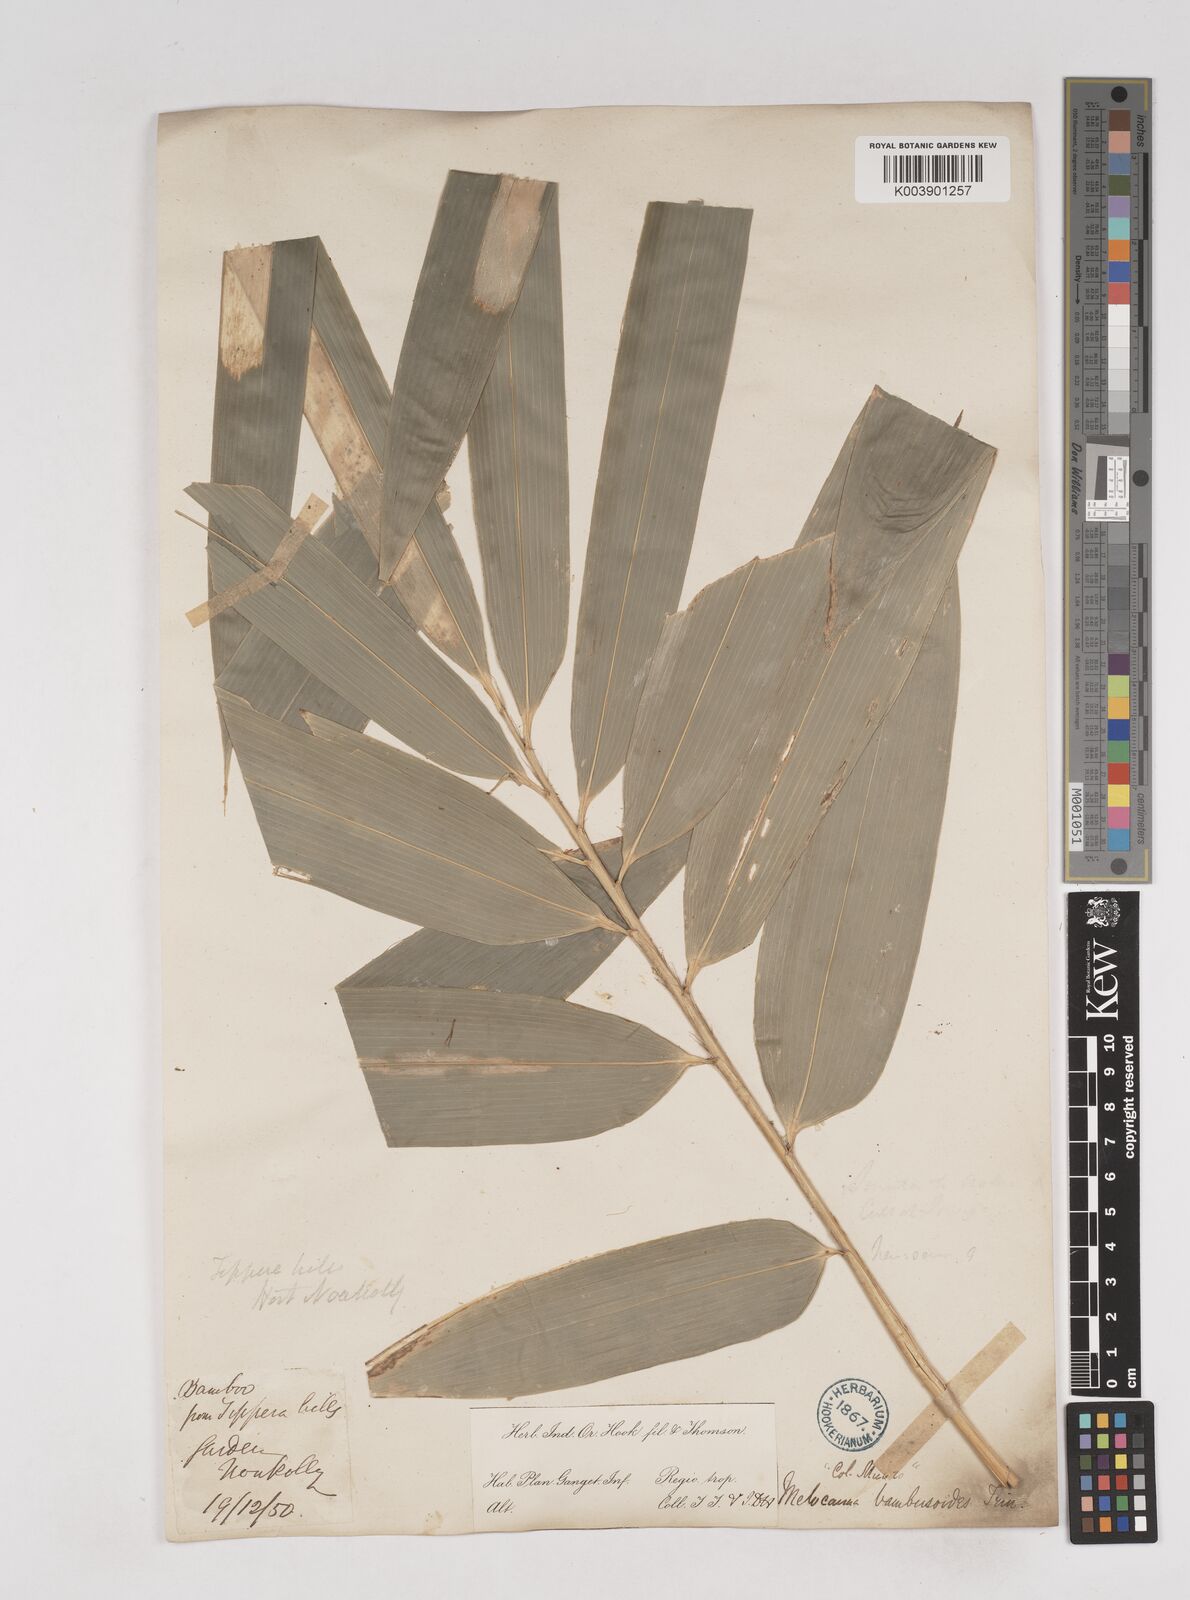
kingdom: Plantae
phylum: Tracheophyta
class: Liliopsida
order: Poales
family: Poaceae
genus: Melocanna
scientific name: Melocanna baccifera
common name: Berry bamboo
